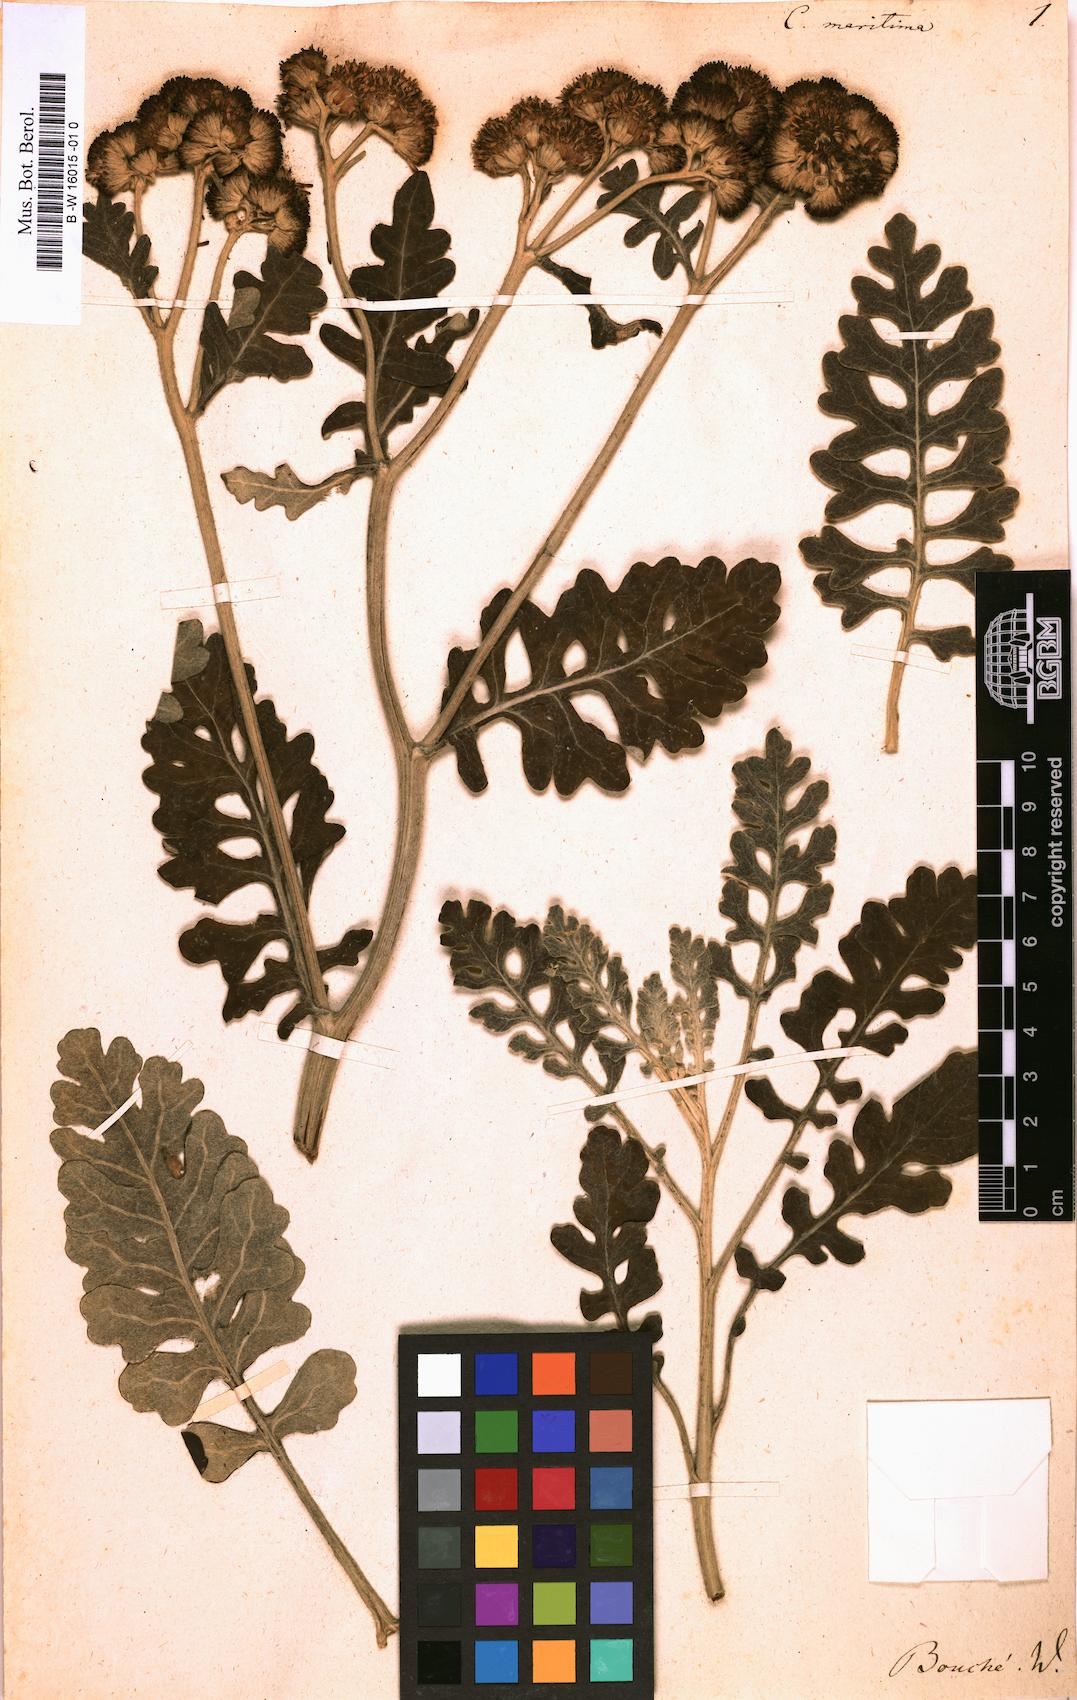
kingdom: Plantae
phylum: Tracheophyta
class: Magnoliopsida
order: Asterales
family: Asteraceae
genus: Cineraria
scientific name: Cineraria maritima
